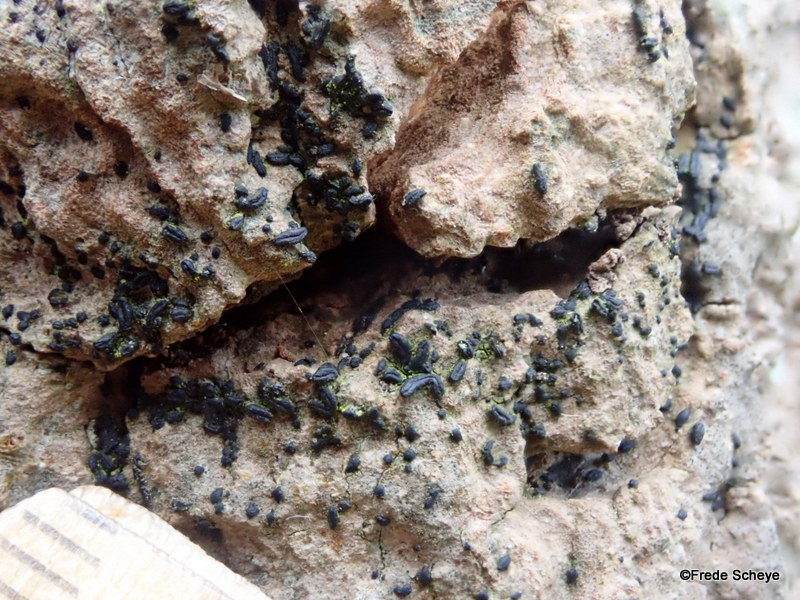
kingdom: Fungi
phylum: Ascomycota
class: Dothideomycetes
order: Hysteriales
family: Hysteriaceae
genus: Hysterium
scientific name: Hysterium acuminatum
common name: almindelig kulmund
